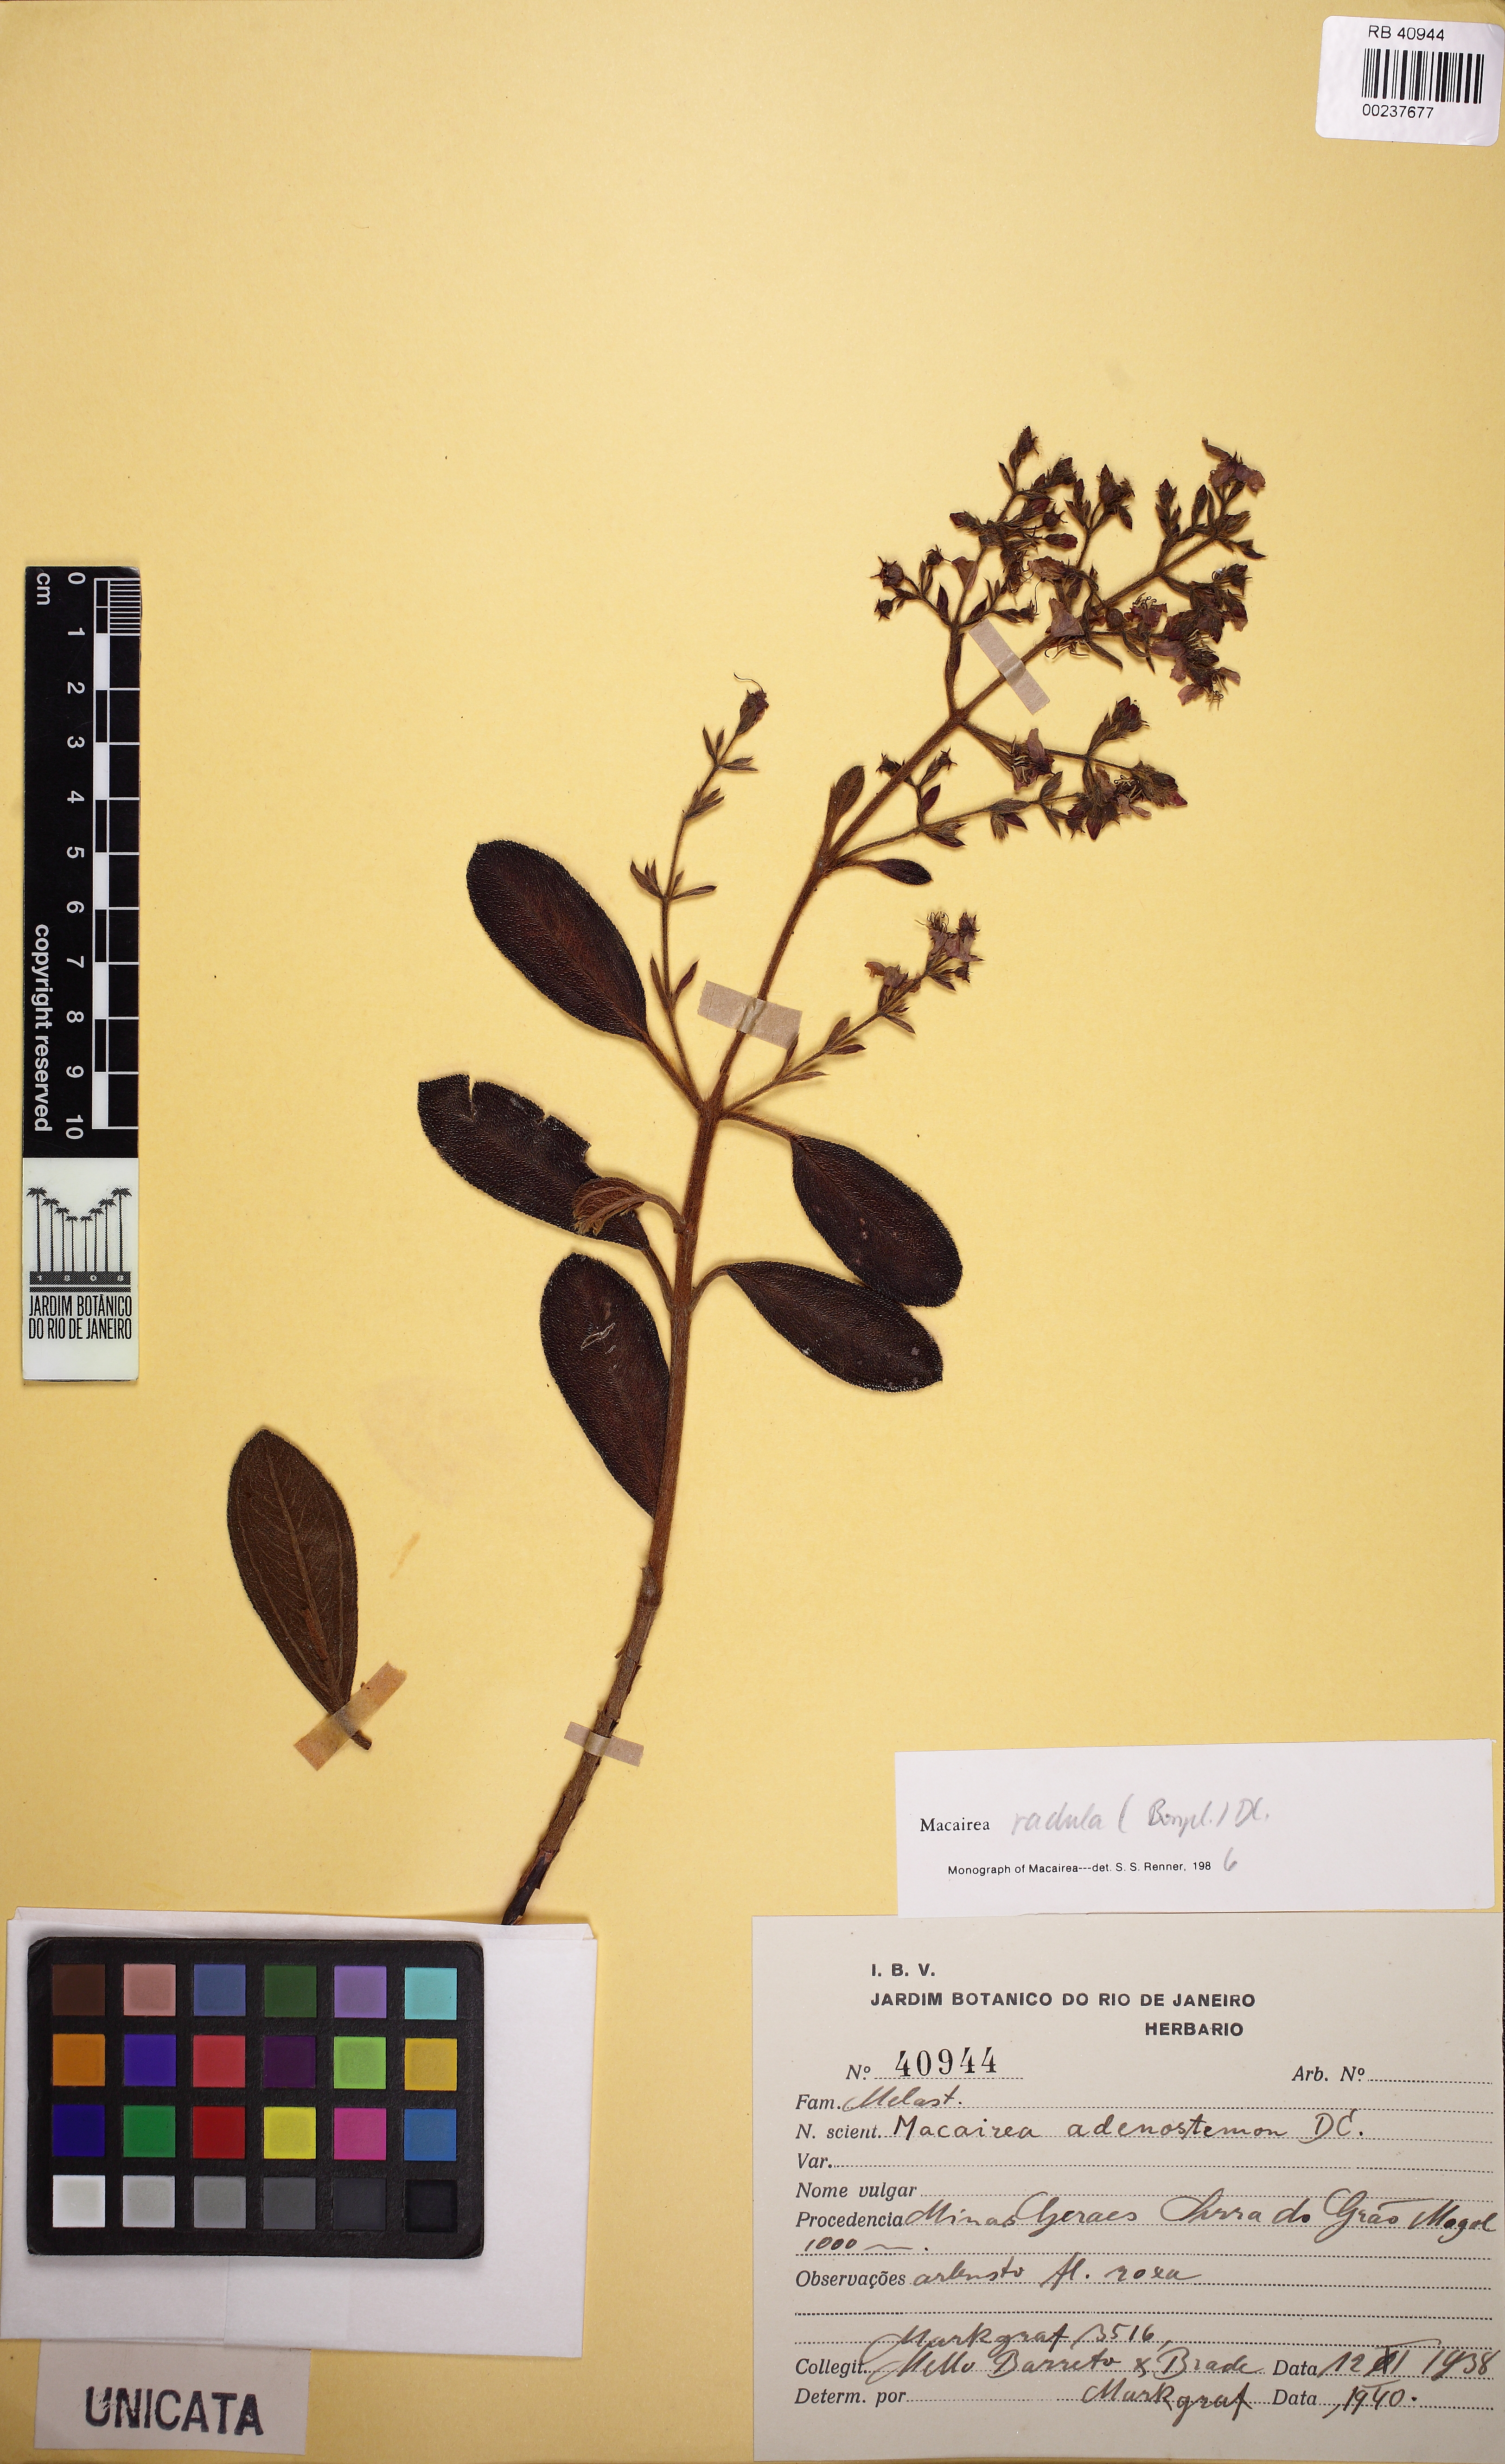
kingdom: Plantae
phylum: Tracheophyta
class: Magnoliopsida
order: Myrtales
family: Melastomataceae
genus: Macairea
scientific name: Macairea radula
